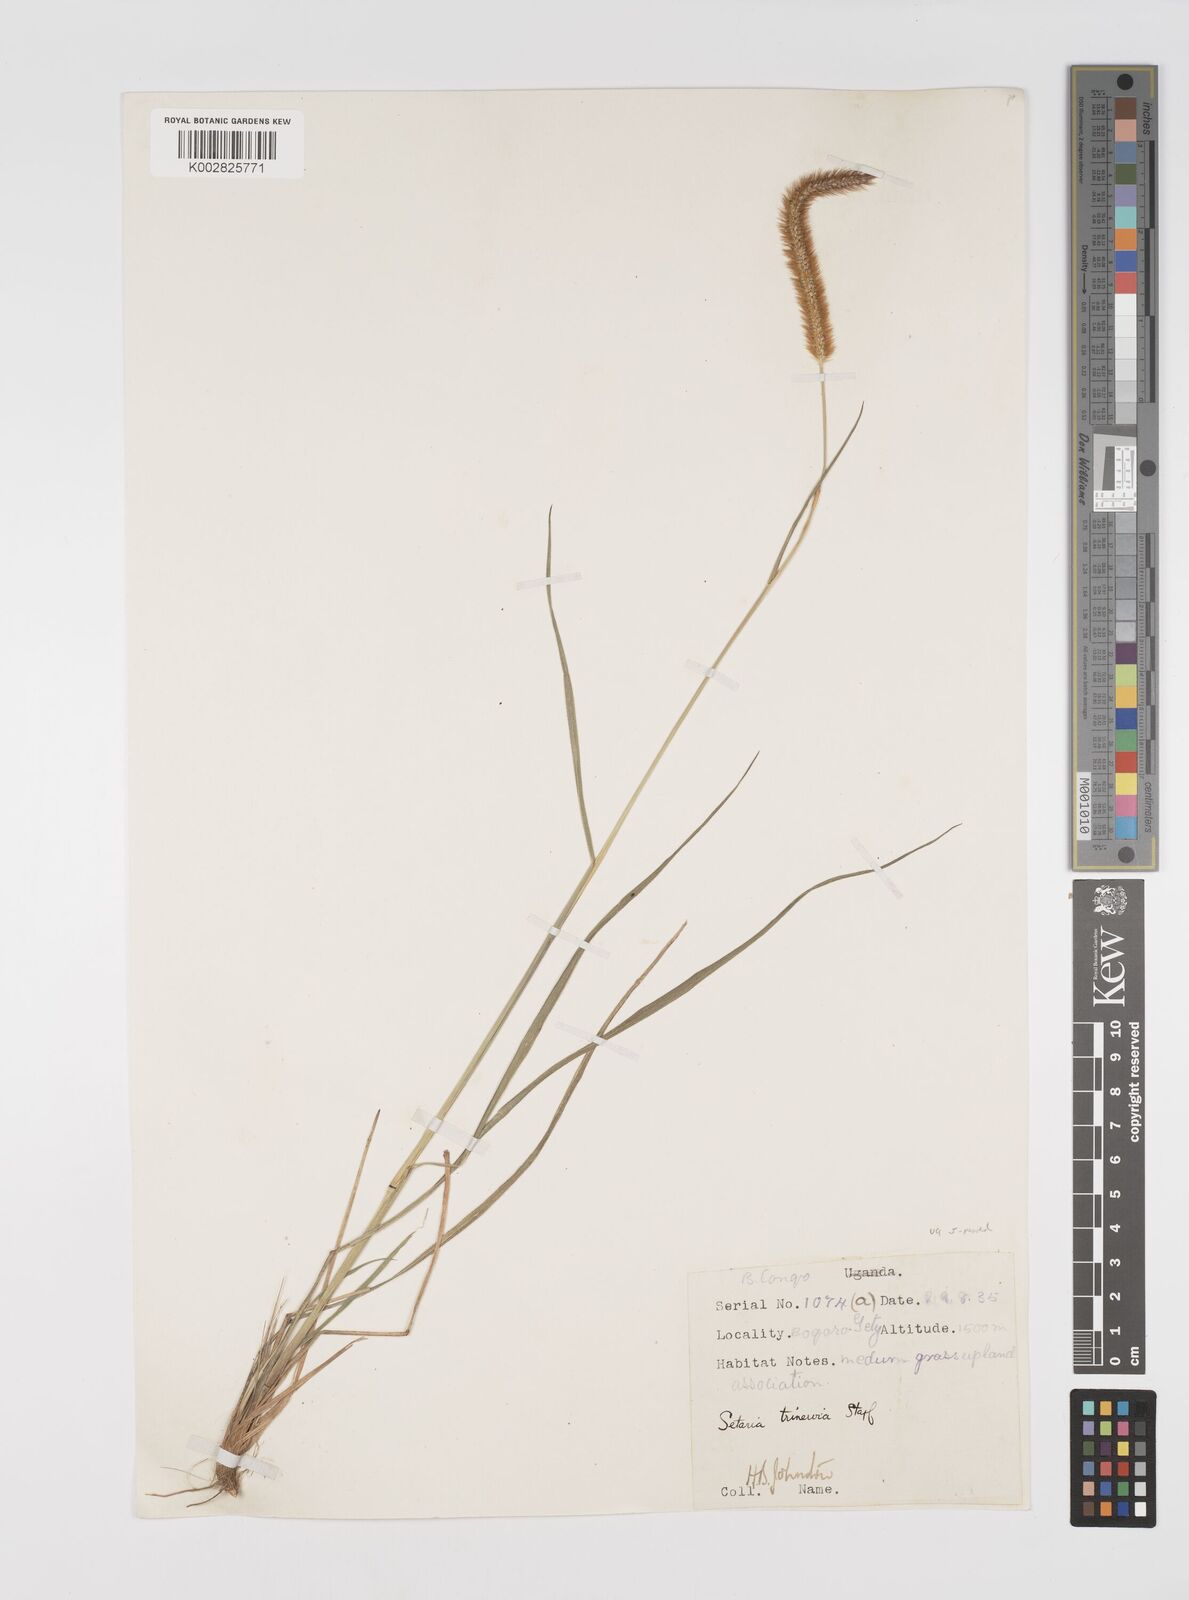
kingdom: Plantae
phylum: Tracheophyta
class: Liliopsida
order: Poales
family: Poaceae
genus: Setaria
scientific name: Setaria sphacelata
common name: African bristlegrass
